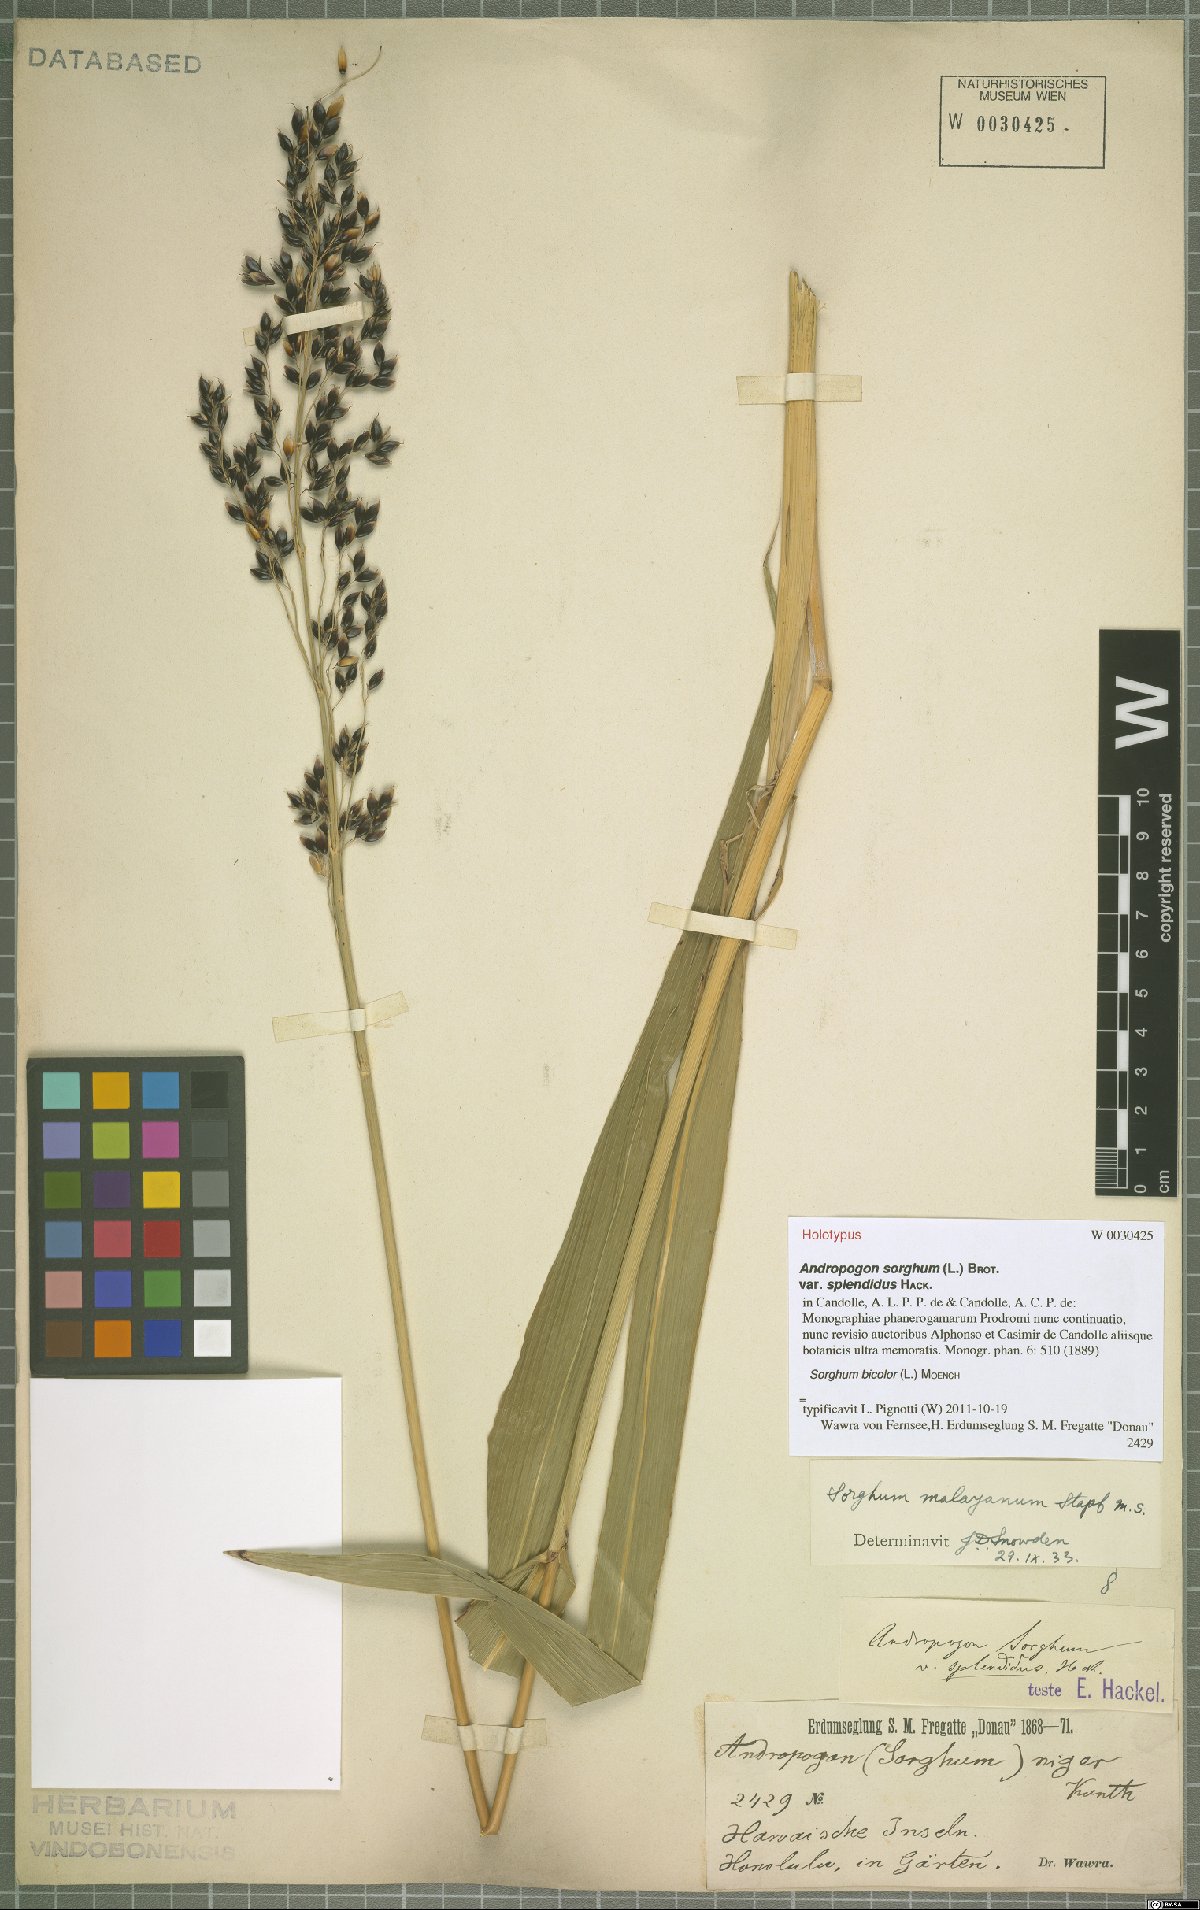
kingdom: Plantae
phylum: Tracheophyta
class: Liliopsida
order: Poales
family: Poaceae
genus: Sorghum
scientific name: Sorghum bicolor
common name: Sorghum
